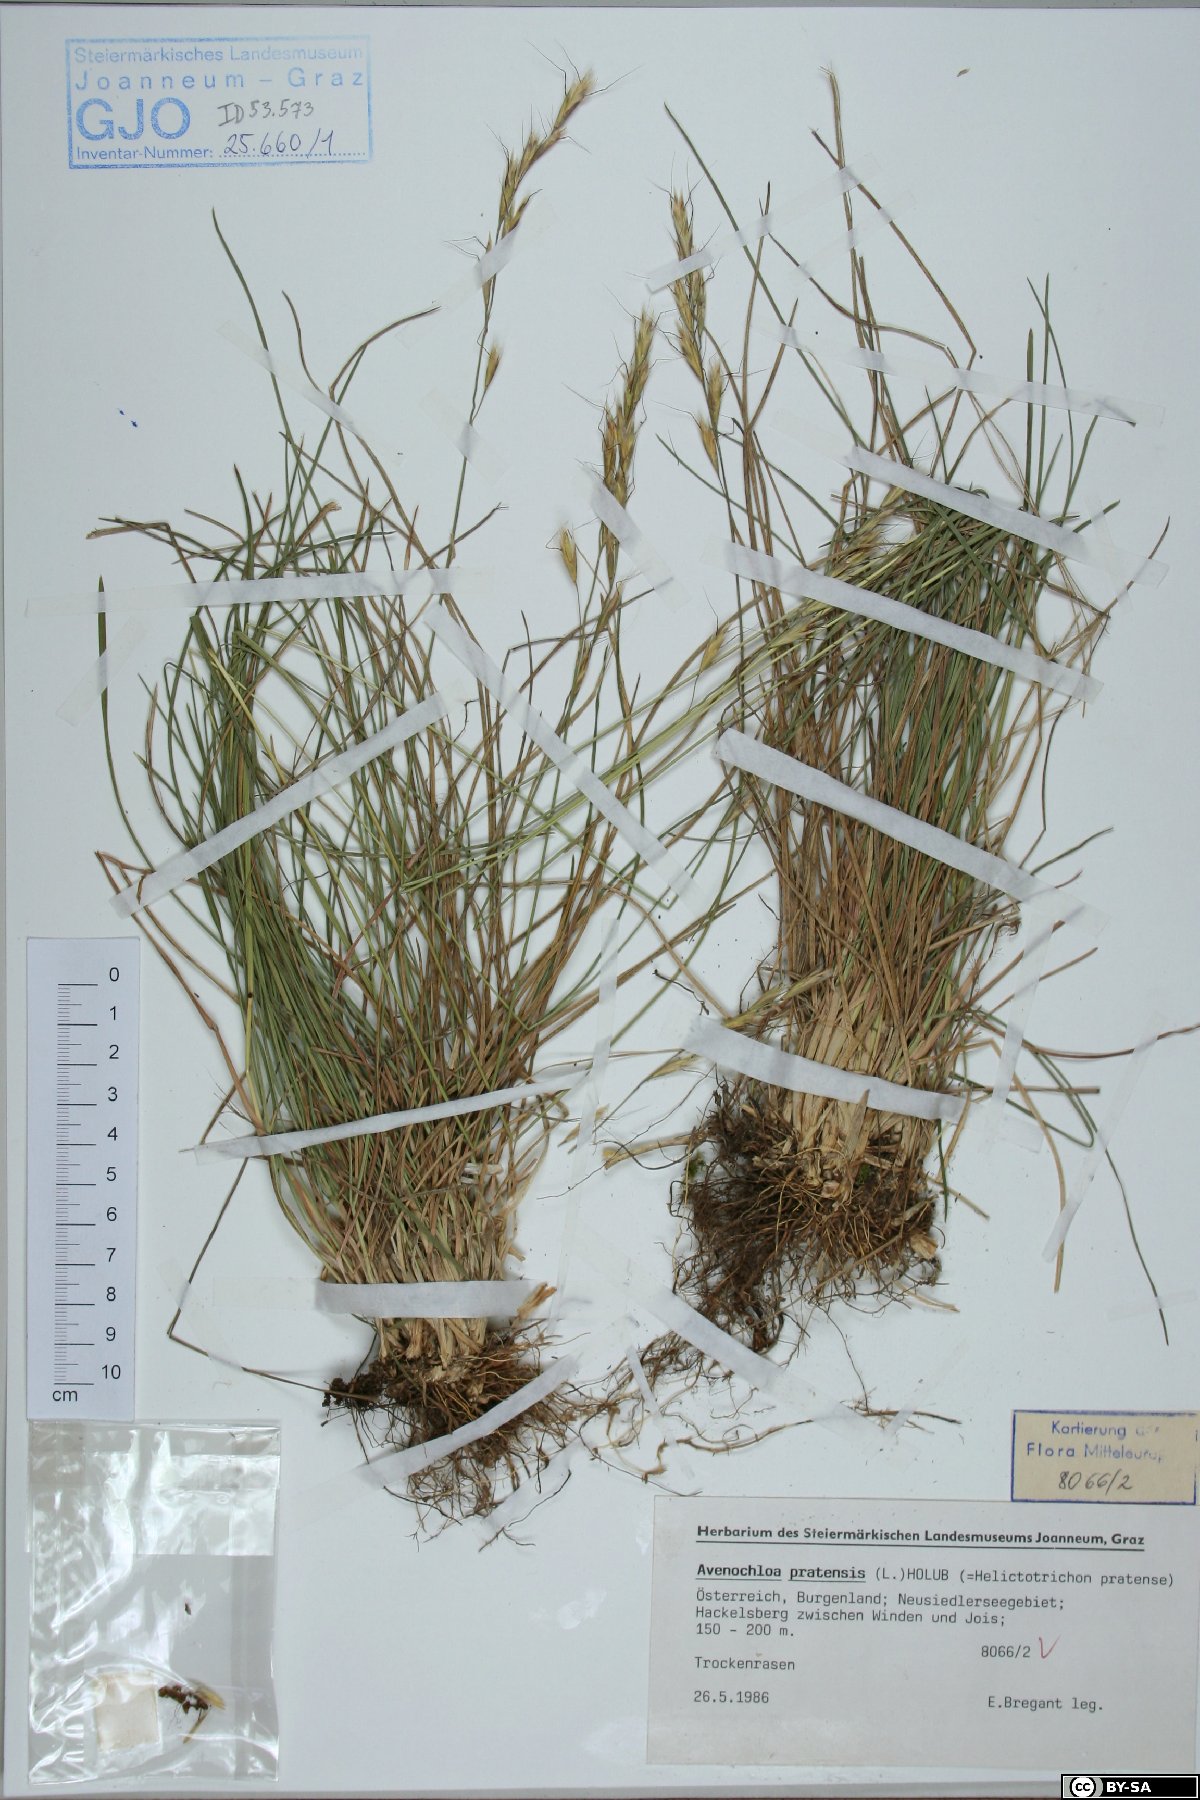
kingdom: Plantae
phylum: Tracheophyta
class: Liliopsida
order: Poales
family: Poaceae
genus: Helictochloa
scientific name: Helictochloa pratensis
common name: Meadow oat grass
